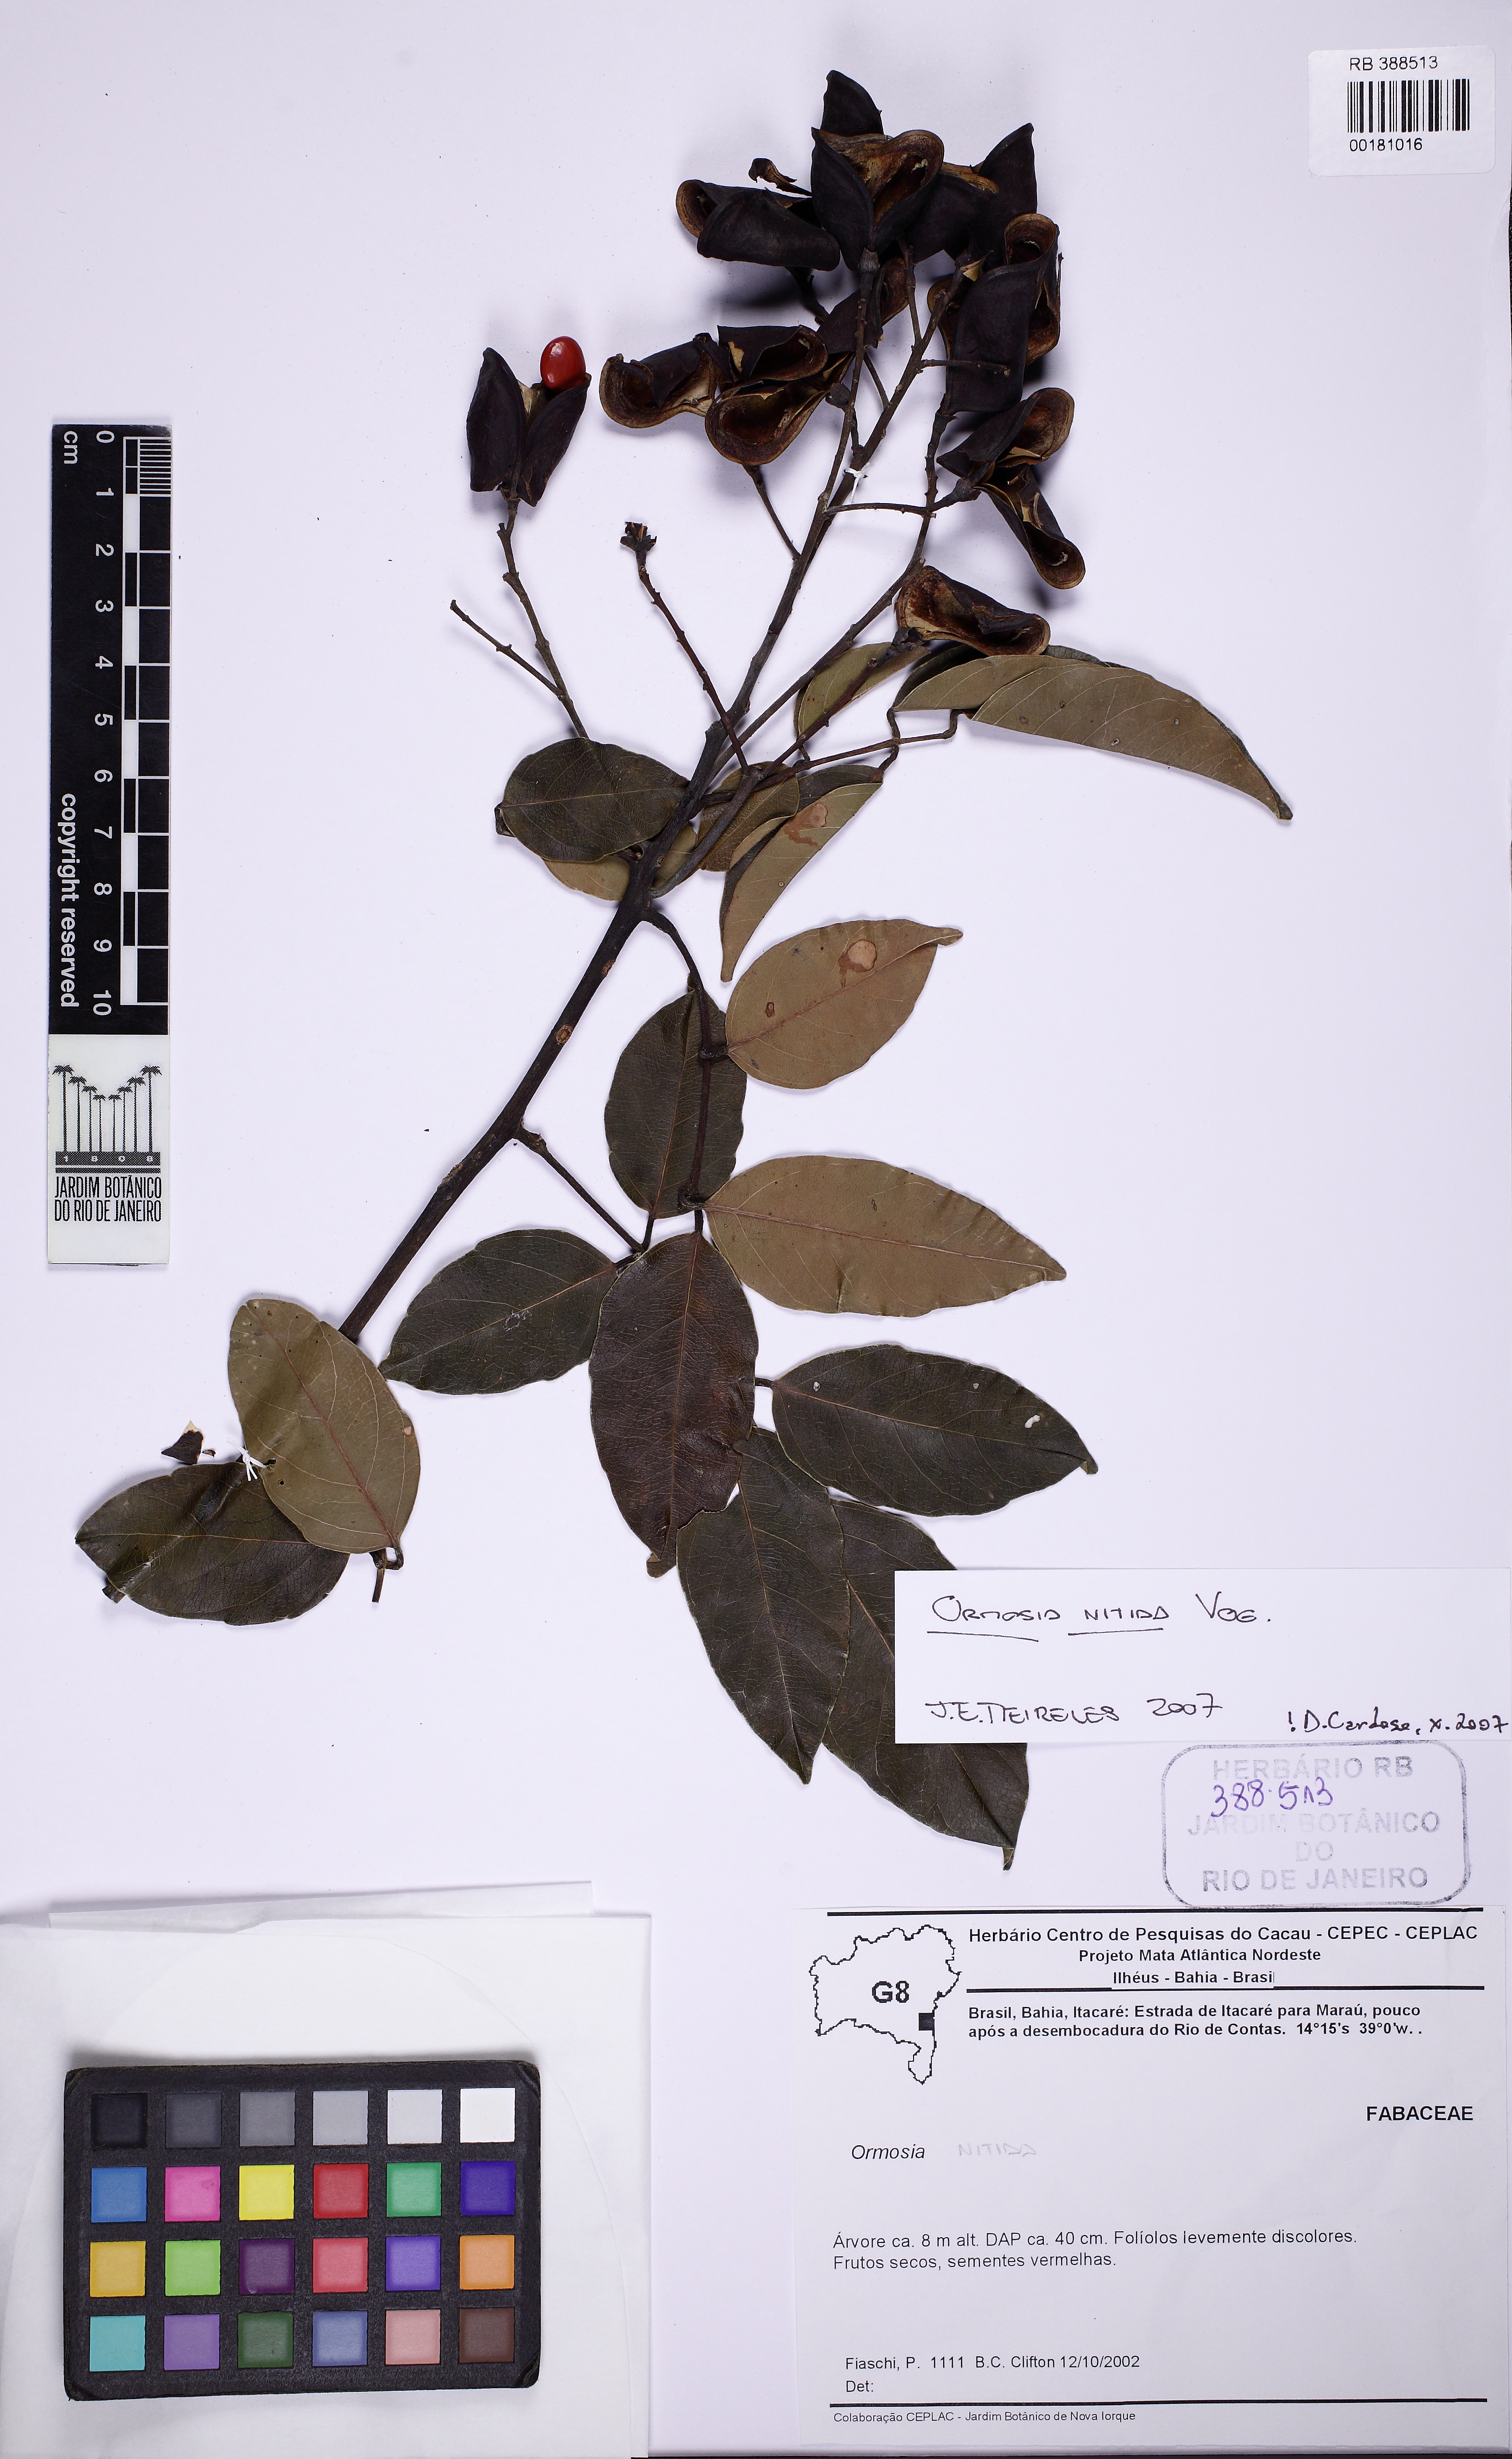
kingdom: Plantae
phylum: Tracheophyta
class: Magnoliopsida
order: Fabales
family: Fabaceae
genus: Ormosia
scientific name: Ormosia nitida
